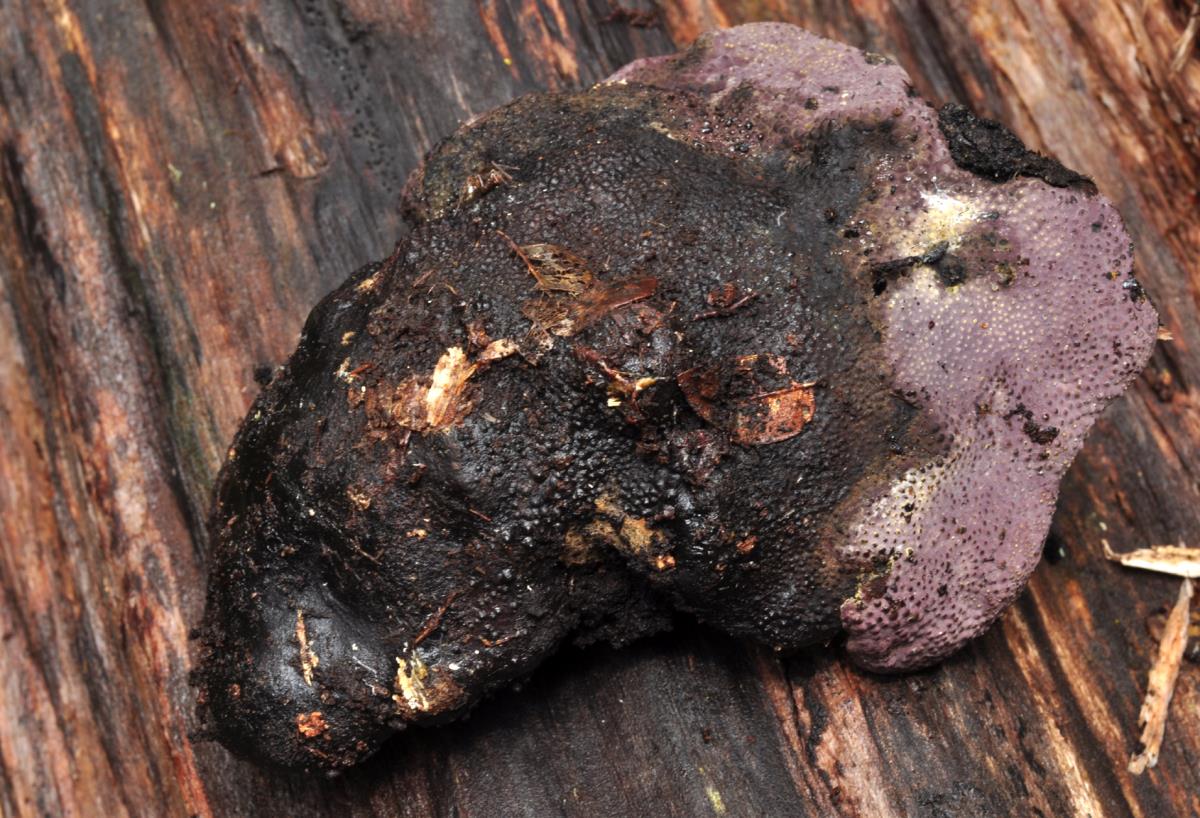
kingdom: Fungi
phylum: Ascomycota
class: Sordariomycetes
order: Xylariales
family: Hypoxylaceae
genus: Hypoxylon
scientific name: Hypoxylon placentiforme
